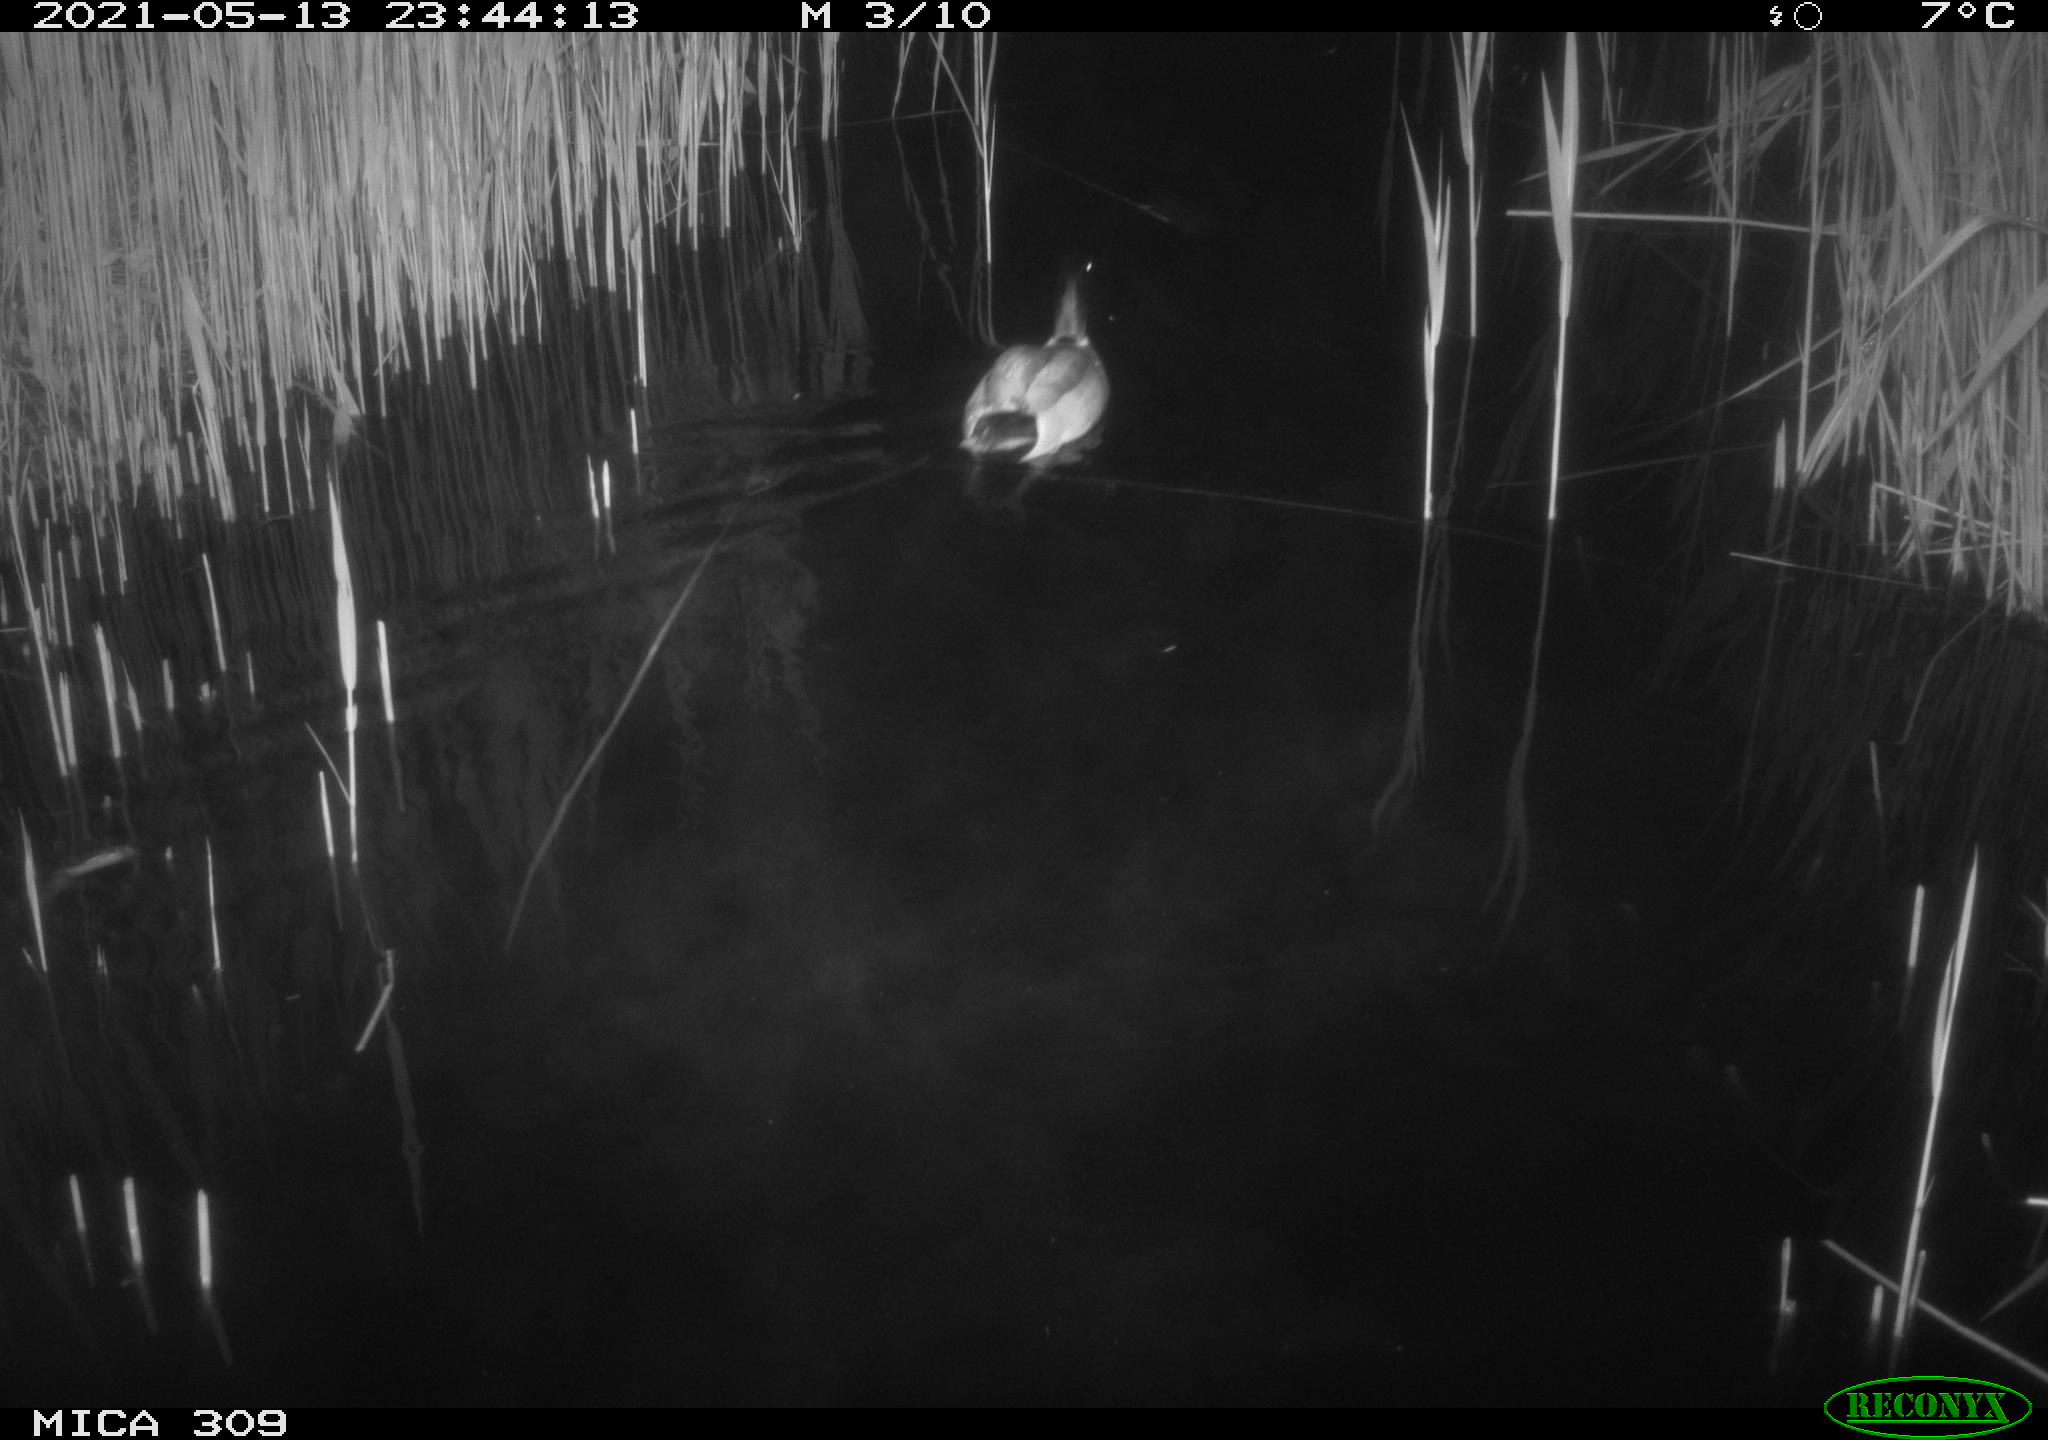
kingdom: Animalia
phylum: Chordata
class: Aves
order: Anseriformes
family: Anatidae
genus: Anas
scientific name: Anas platyrhynchos
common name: Mallard
